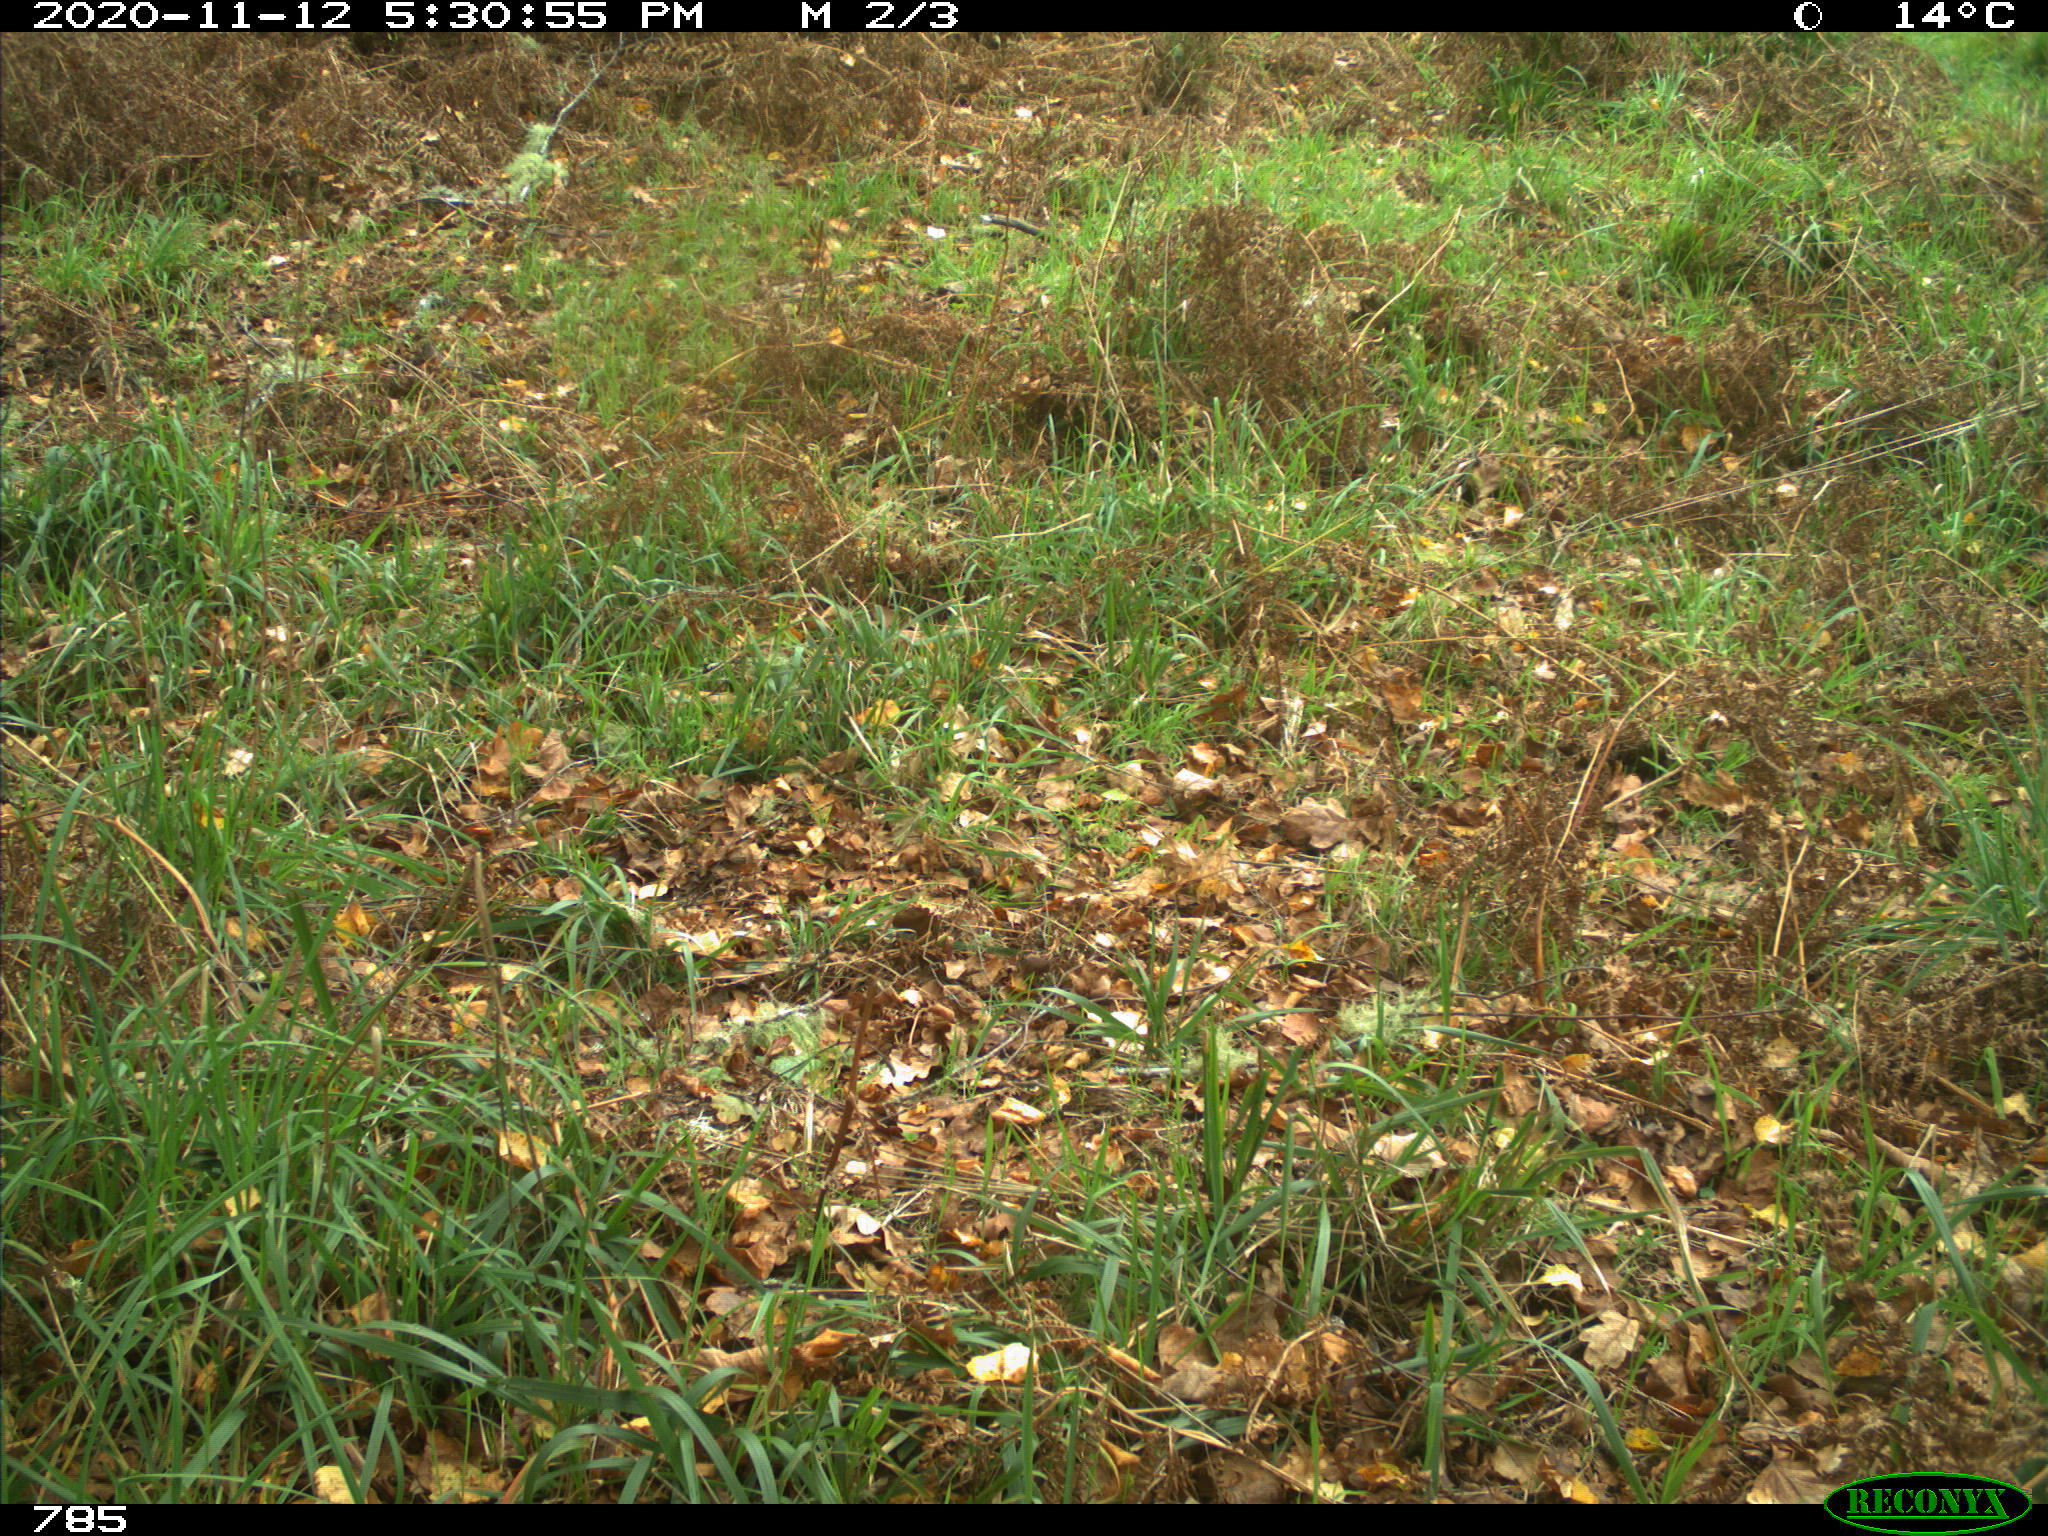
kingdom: Animalia
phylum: Chordata
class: Mammalia
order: Artiodactyla
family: Bovidae
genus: Bos
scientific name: Bos taurus
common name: Domesticated cattle
